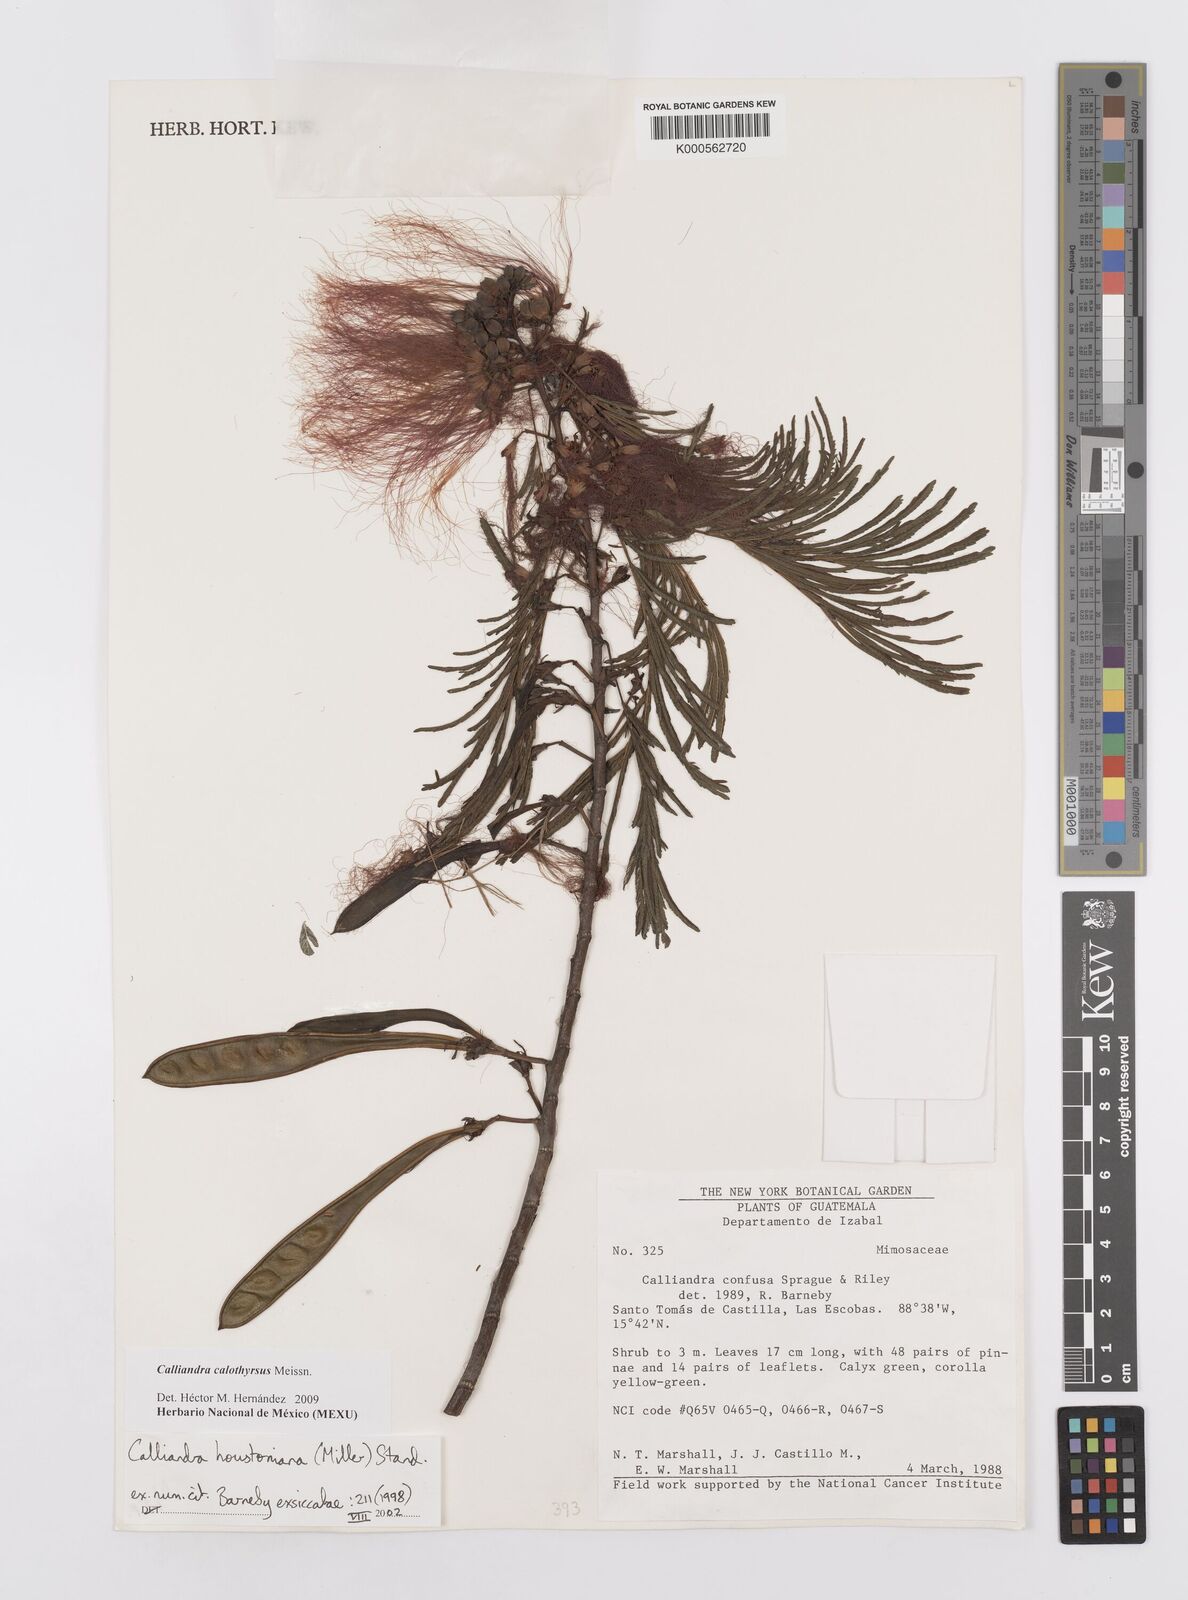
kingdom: Plantae
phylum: Tracheophyta
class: Magnoliopsida
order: Fabales
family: Fabaceae
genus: Calliandra
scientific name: Calliandra houstoniana
